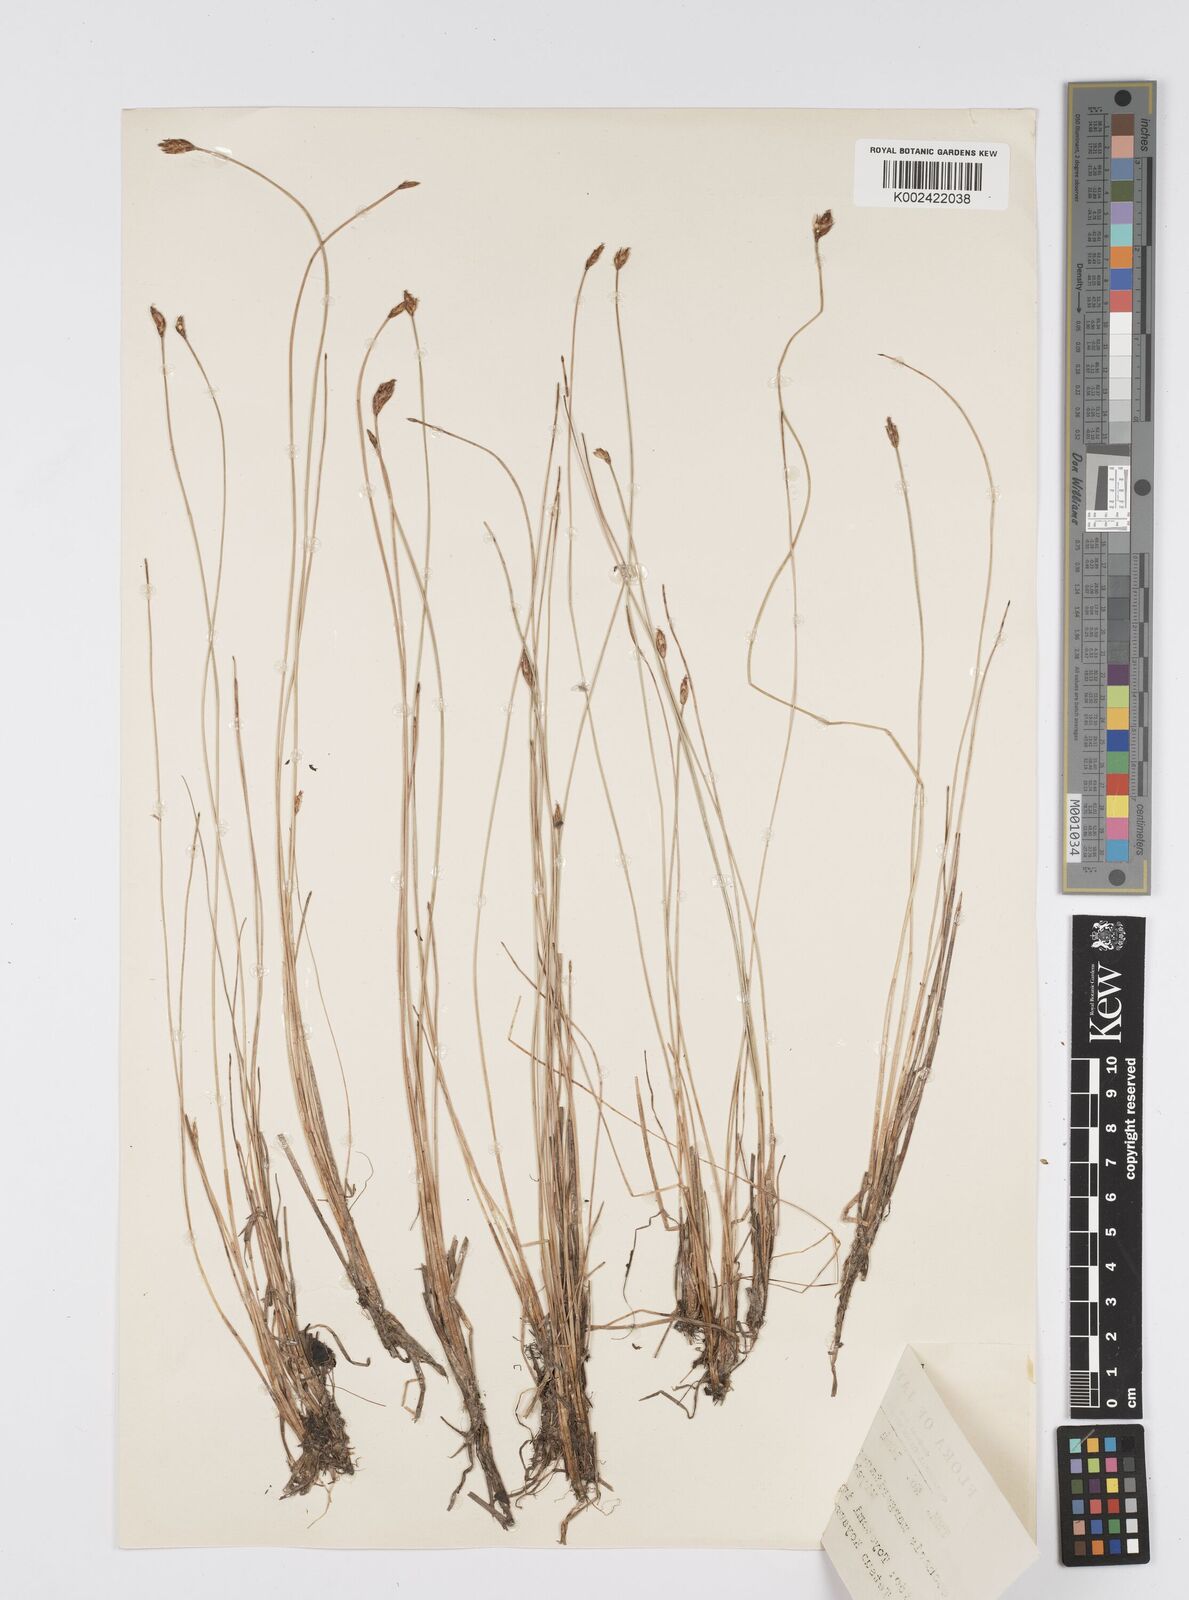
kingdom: Plantae
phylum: Tracheophyta
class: Liliopsida
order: Poales
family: Cyperaceae
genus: Eleocharis
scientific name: Eleocharis margaritacea
